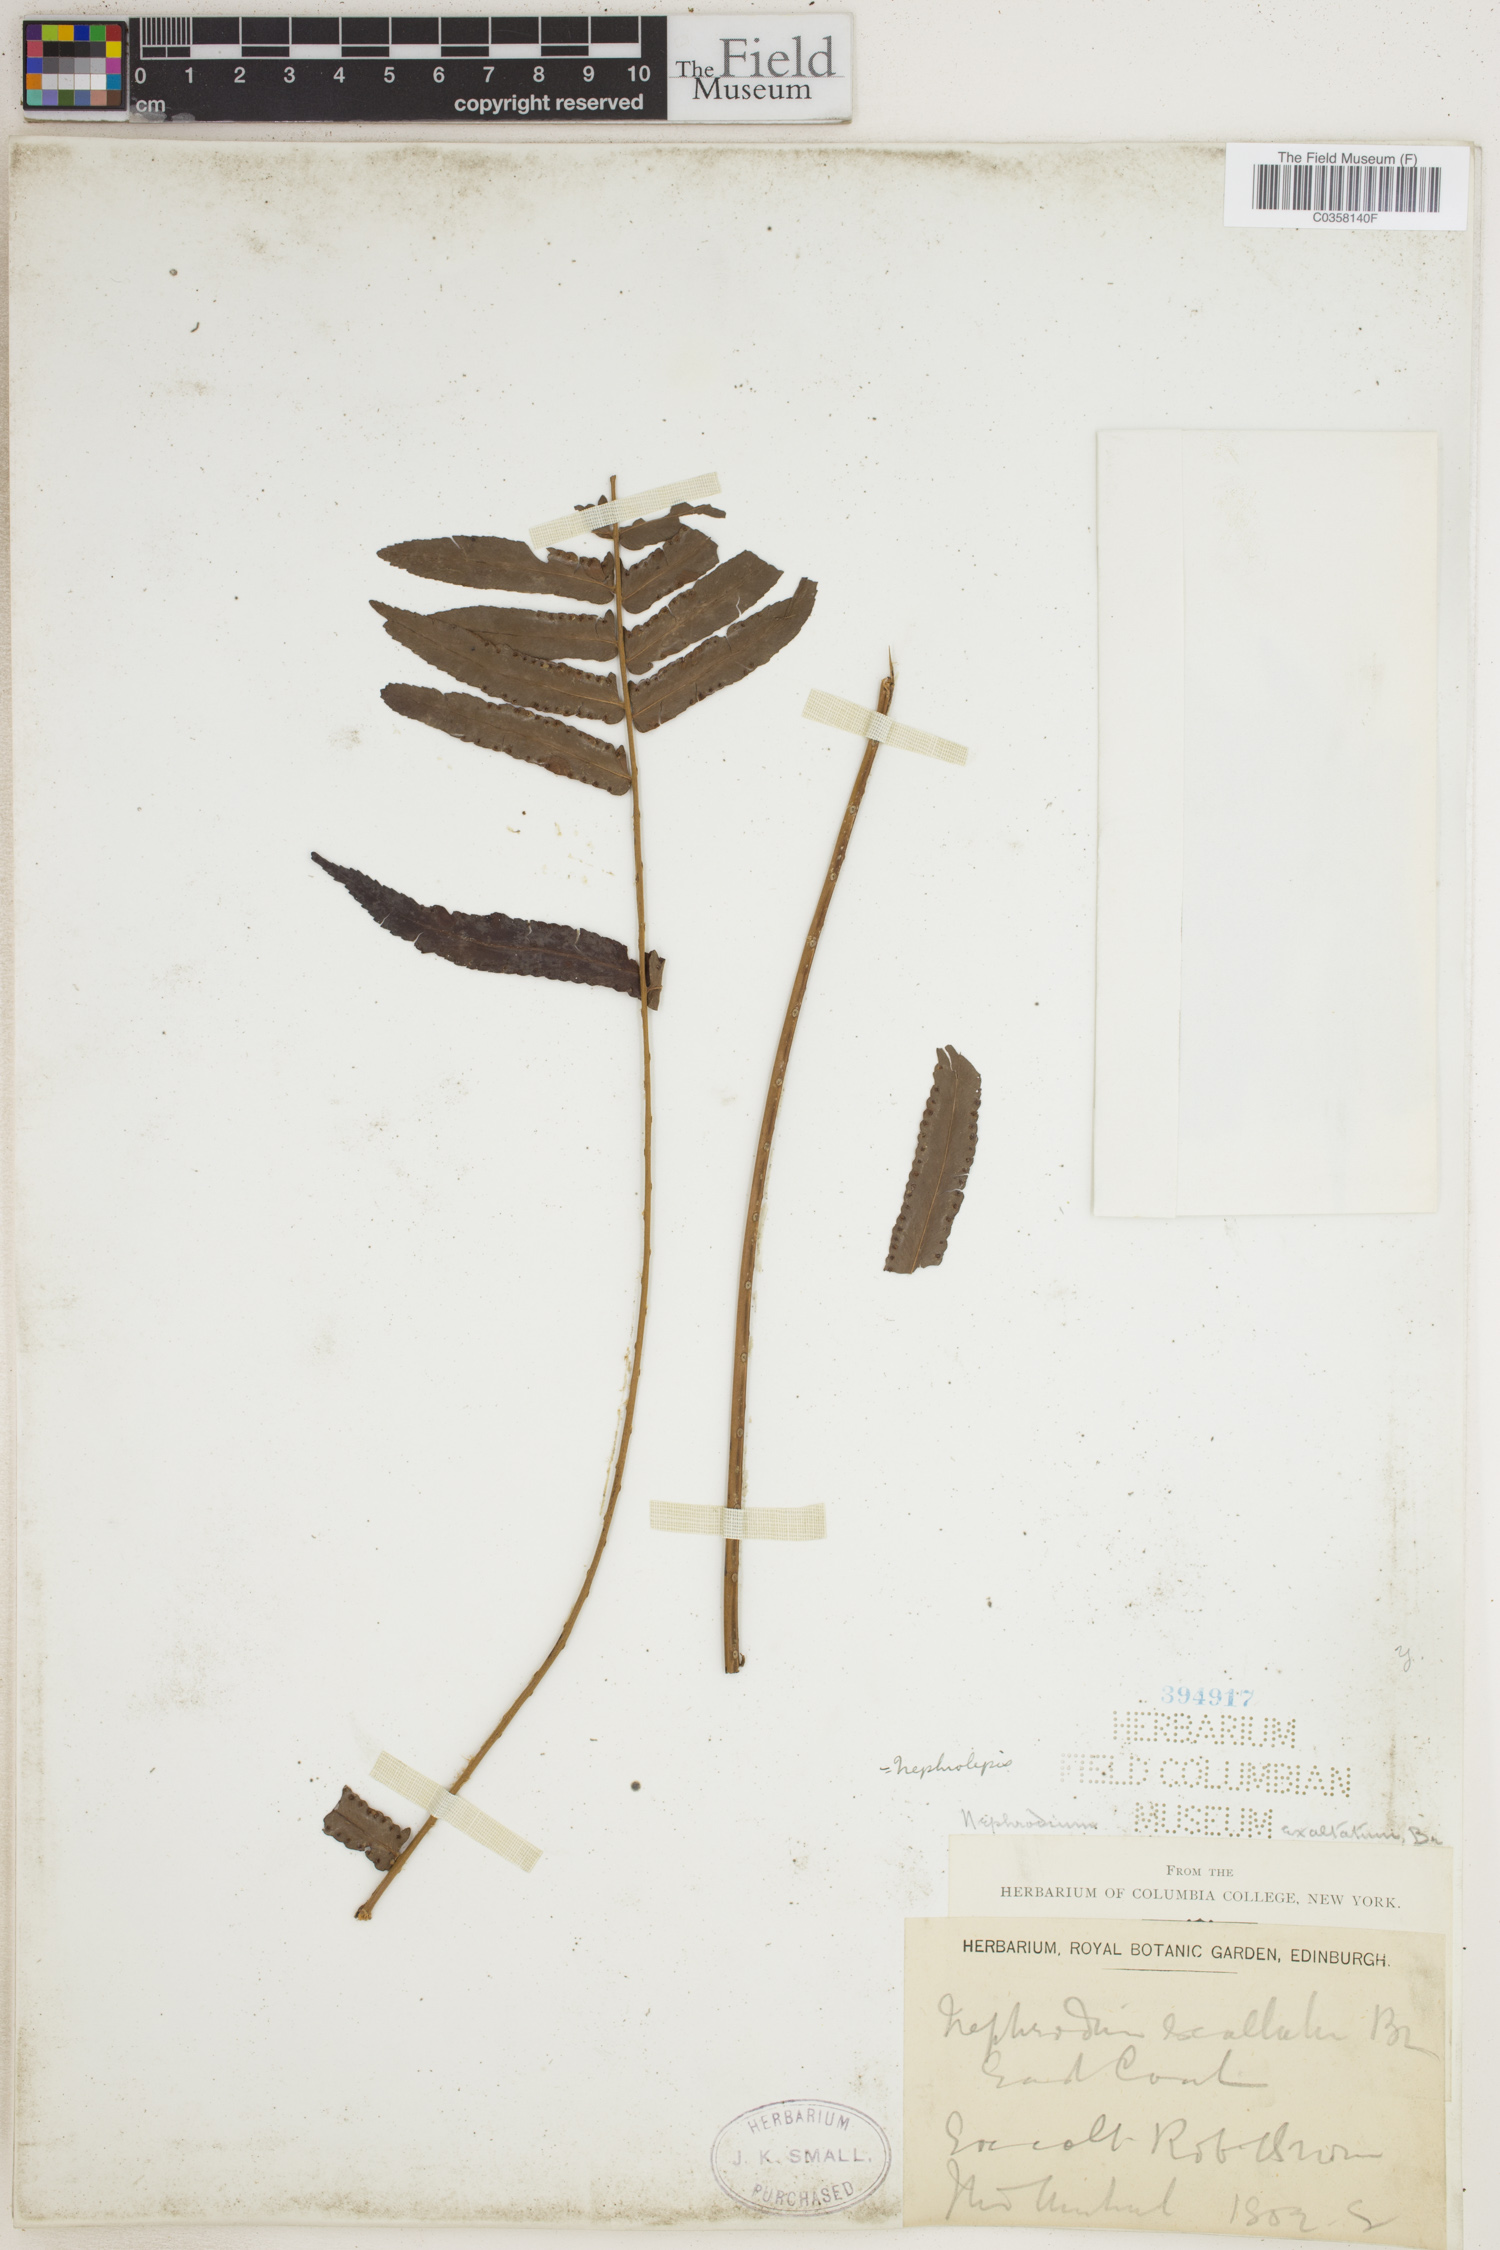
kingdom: Plantae
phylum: Tracheophyta
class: Polypodiopsida
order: Polypodiales
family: Nephrolepidaceae
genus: Nephrolepis
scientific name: Nephrolepis cordifolia
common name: Narrow swordfern
